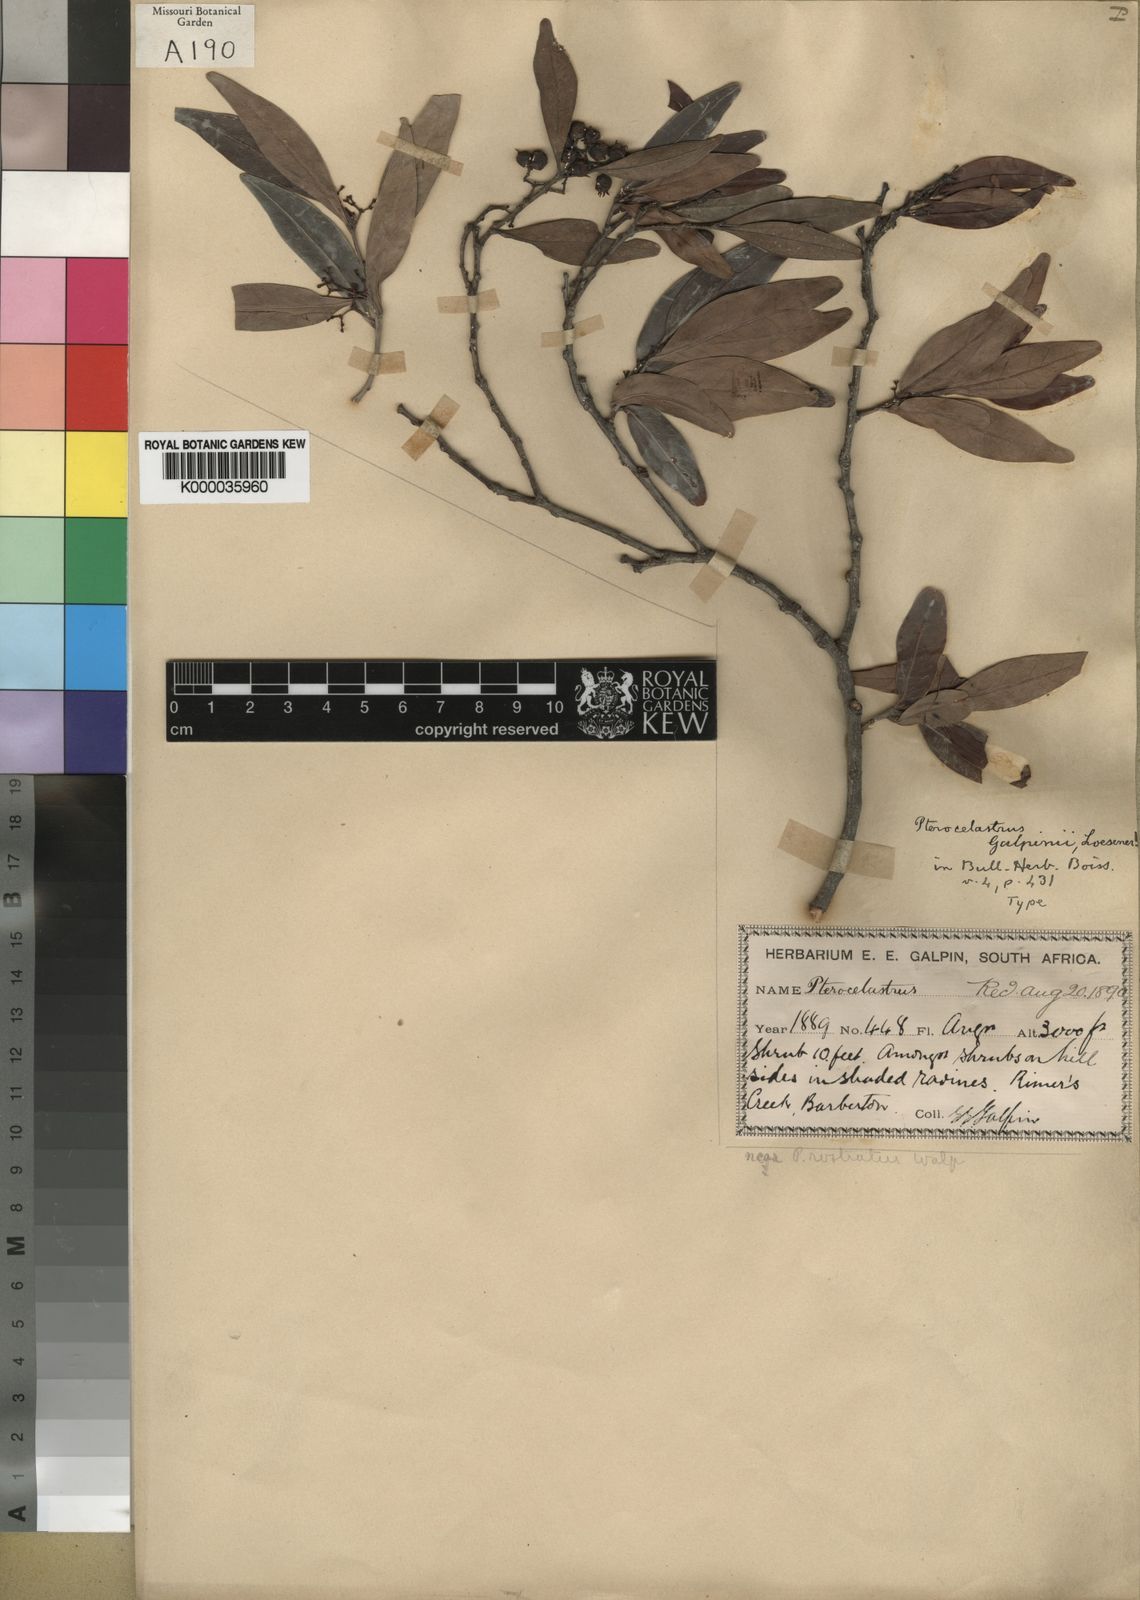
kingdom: Plantae
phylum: Tracheophyta
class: Magnoliopsida
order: Celastrales
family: Celastraceae
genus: Pterocelastrus
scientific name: Pterocelastrus echinatus
